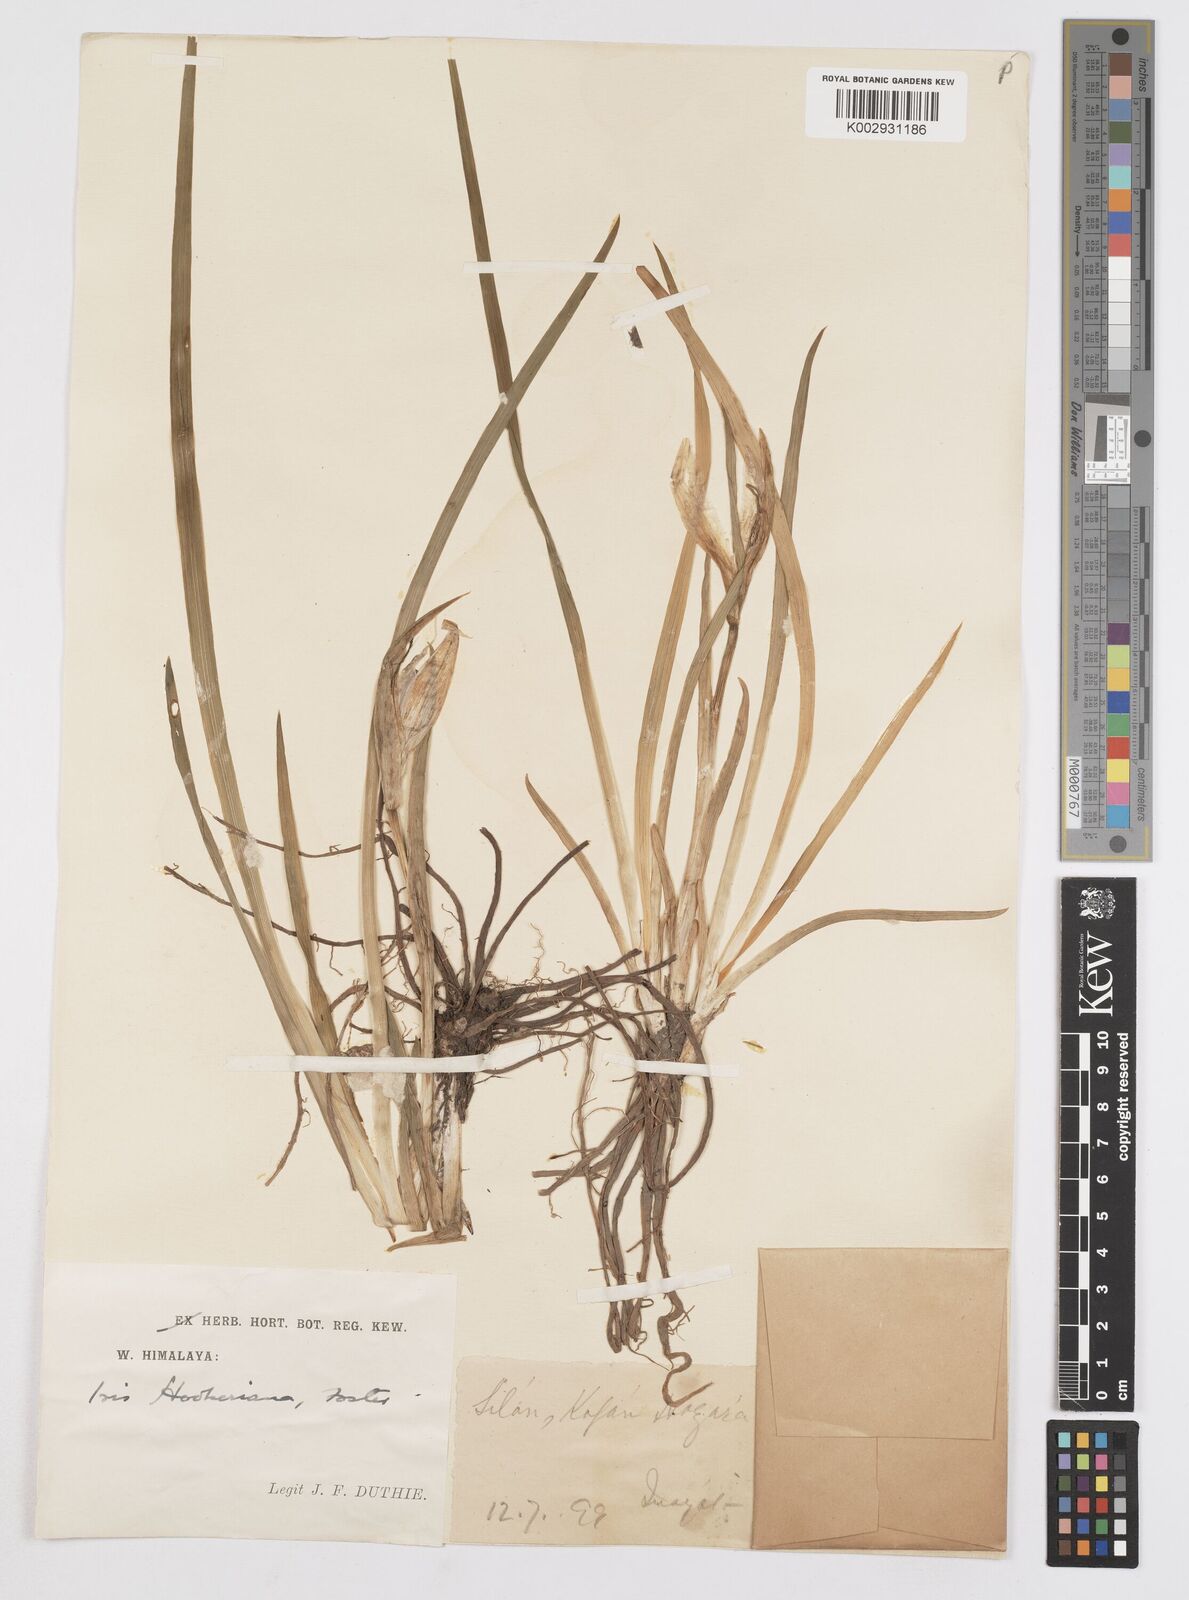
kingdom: Plantae
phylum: Tracheophyta
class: Liliopsida
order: Asparagales
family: Iridaceae
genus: Iris
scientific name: Iris hookeriana
